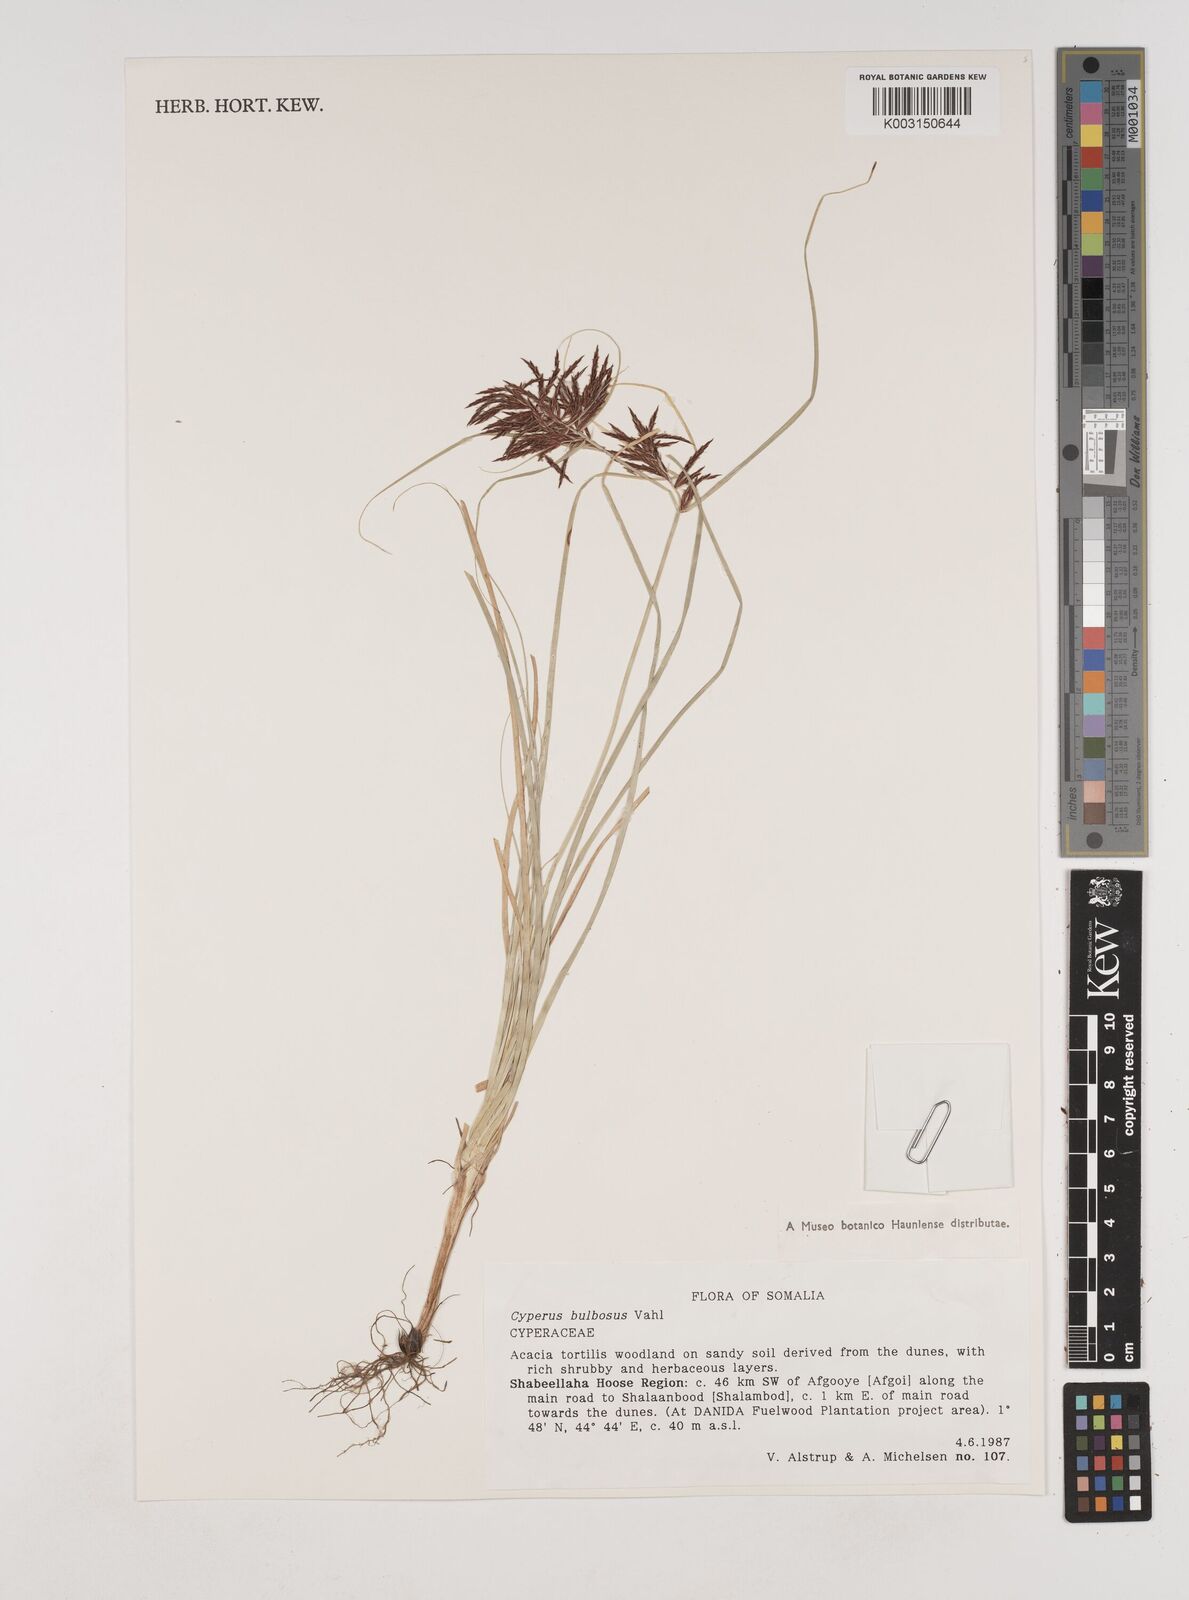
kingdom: Plantae
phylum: Tracheophyta
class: Liliopsida
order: Poales
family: Cyperaceae
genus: Cyperus
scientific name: Cyperus bulbosus
